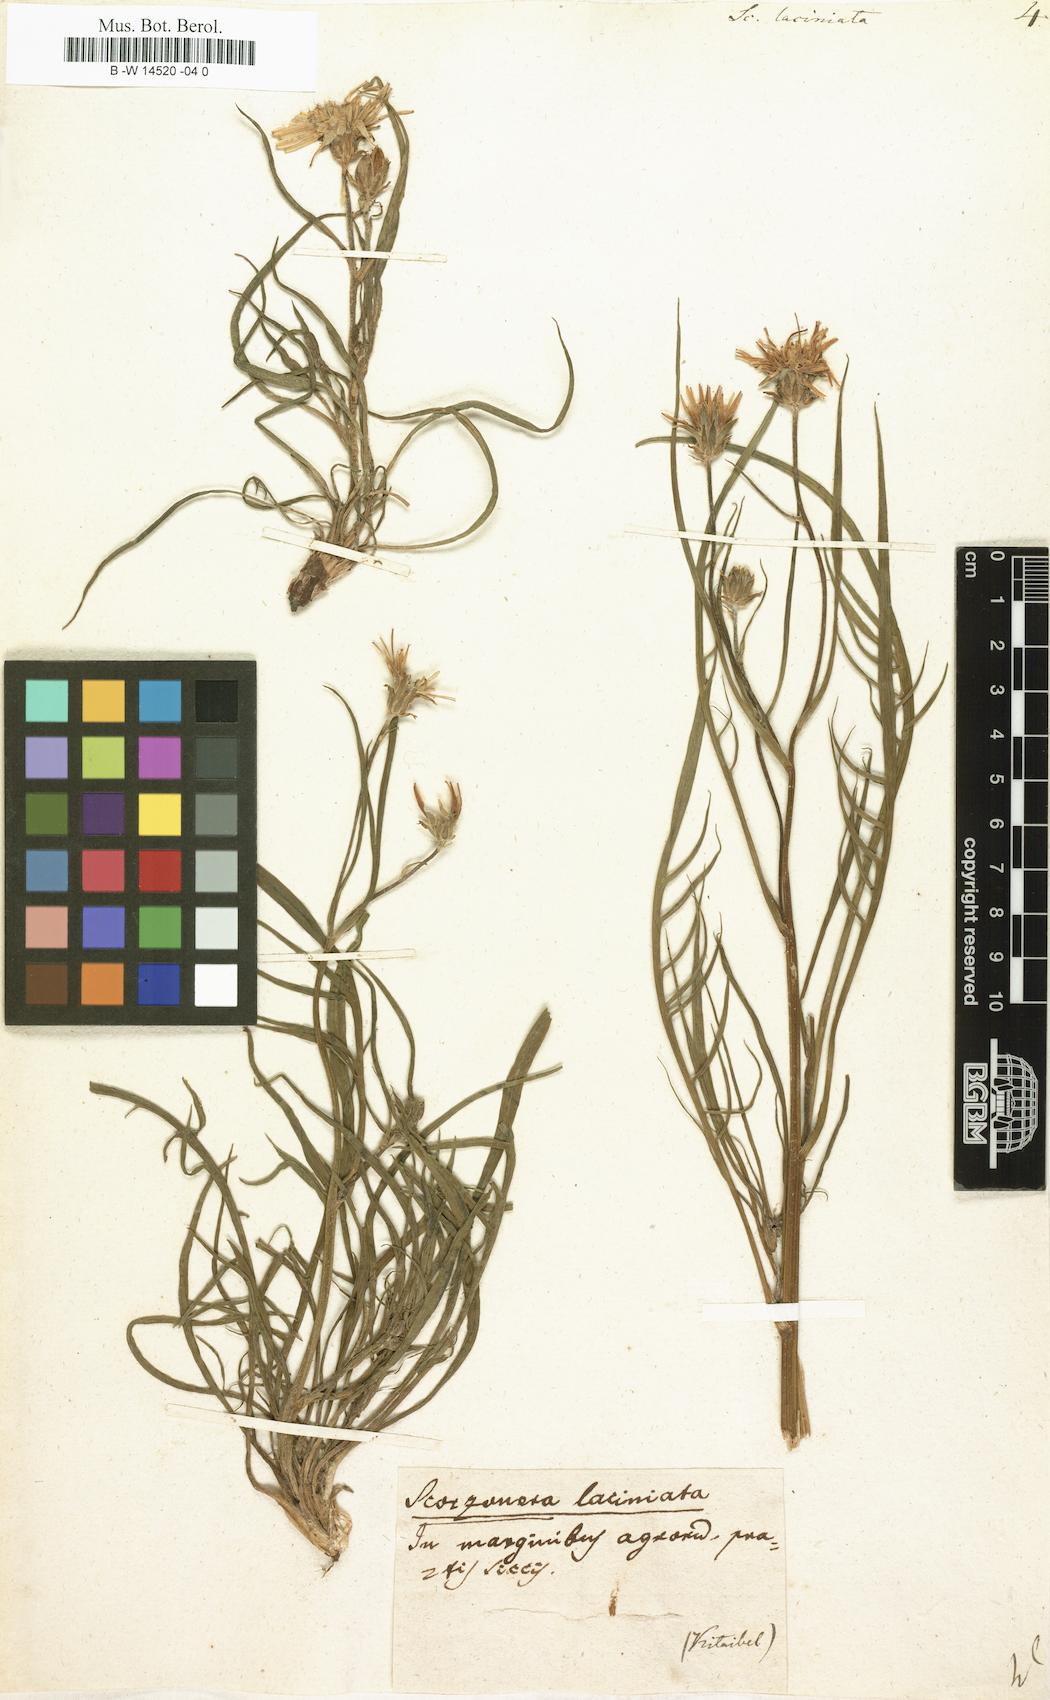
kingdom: Plantae
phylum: Tracheophyta
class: Magnoliopsida
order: Asterales
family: Asteraceae
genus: Scorzonera
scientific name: Scorzonera laciniata
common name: Cutleaf vipergrass
